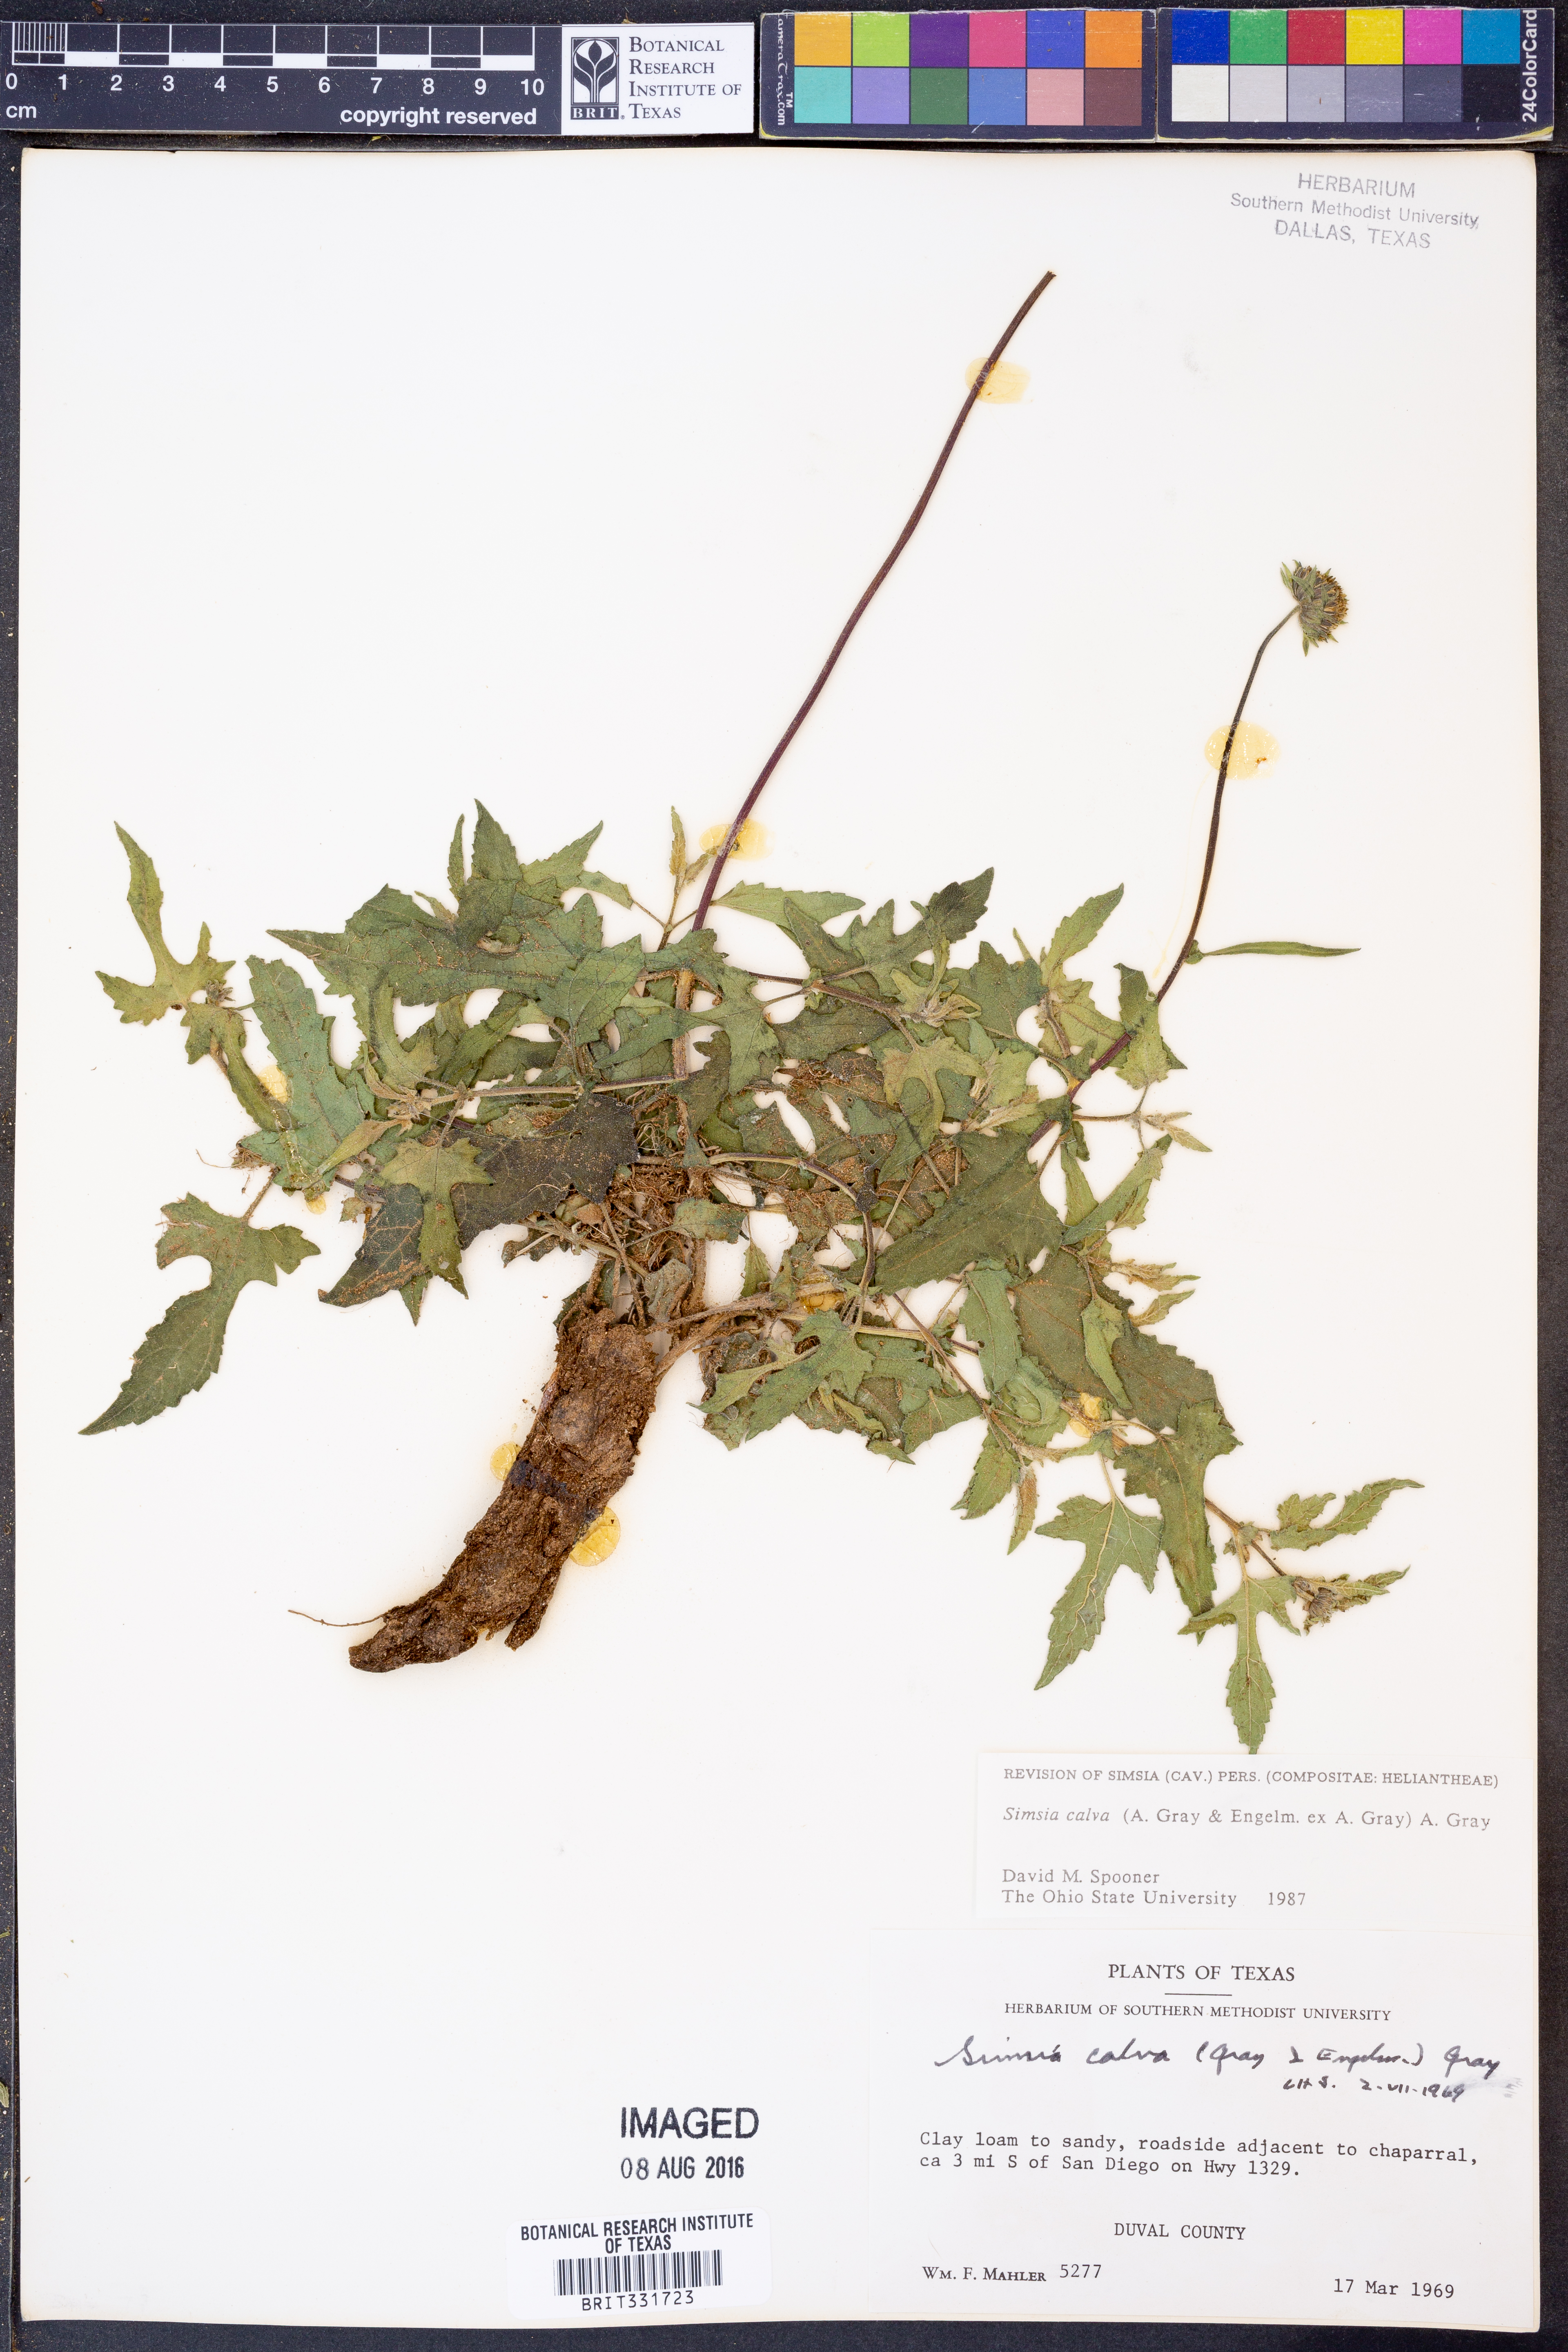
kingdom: Plantae
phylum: Tracheophyta
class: Magnoliopsida
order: Asterales
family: Asteraceae
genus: Simsia
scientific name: Simsia calva
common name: Awnless bush-sunflower
